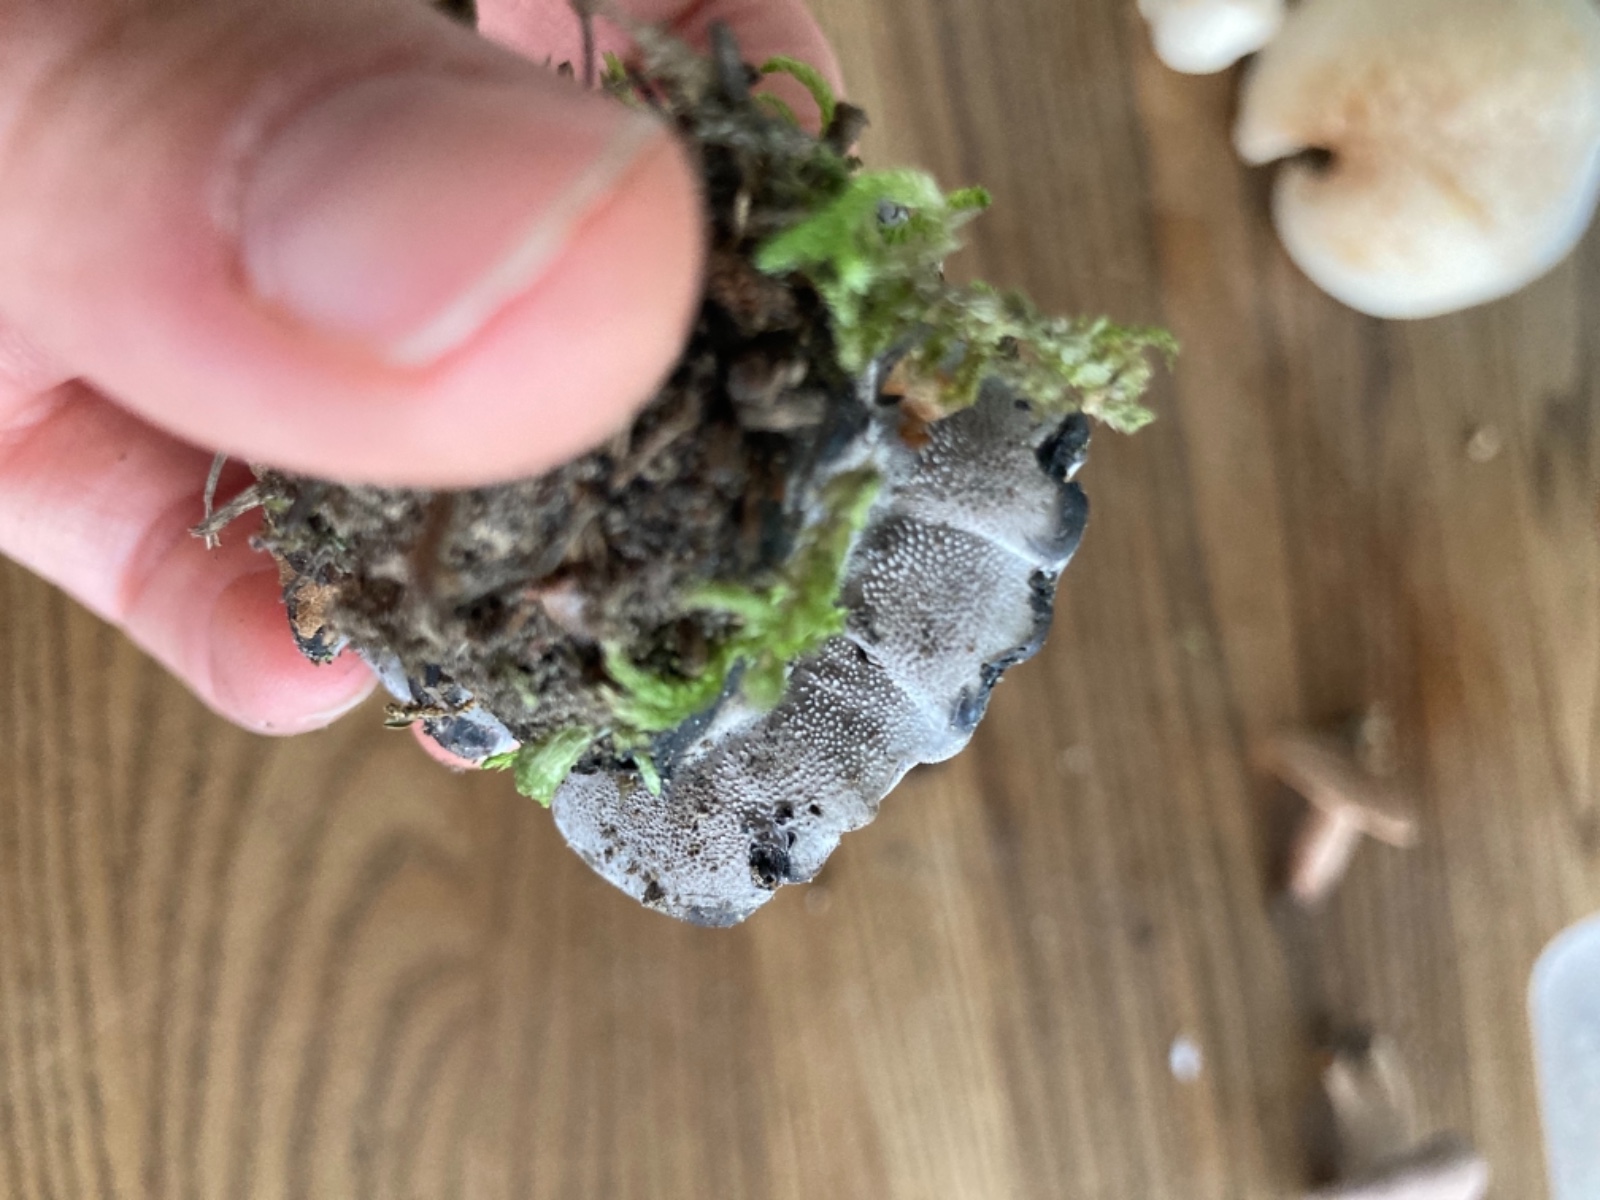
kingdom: Fungi
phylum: Basidiomycota
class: Agaricomycetes
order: Thelephorales
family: Thelephoraceae
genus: Phellodon
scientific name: Phellodon
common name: mørk duftpigsvamp
